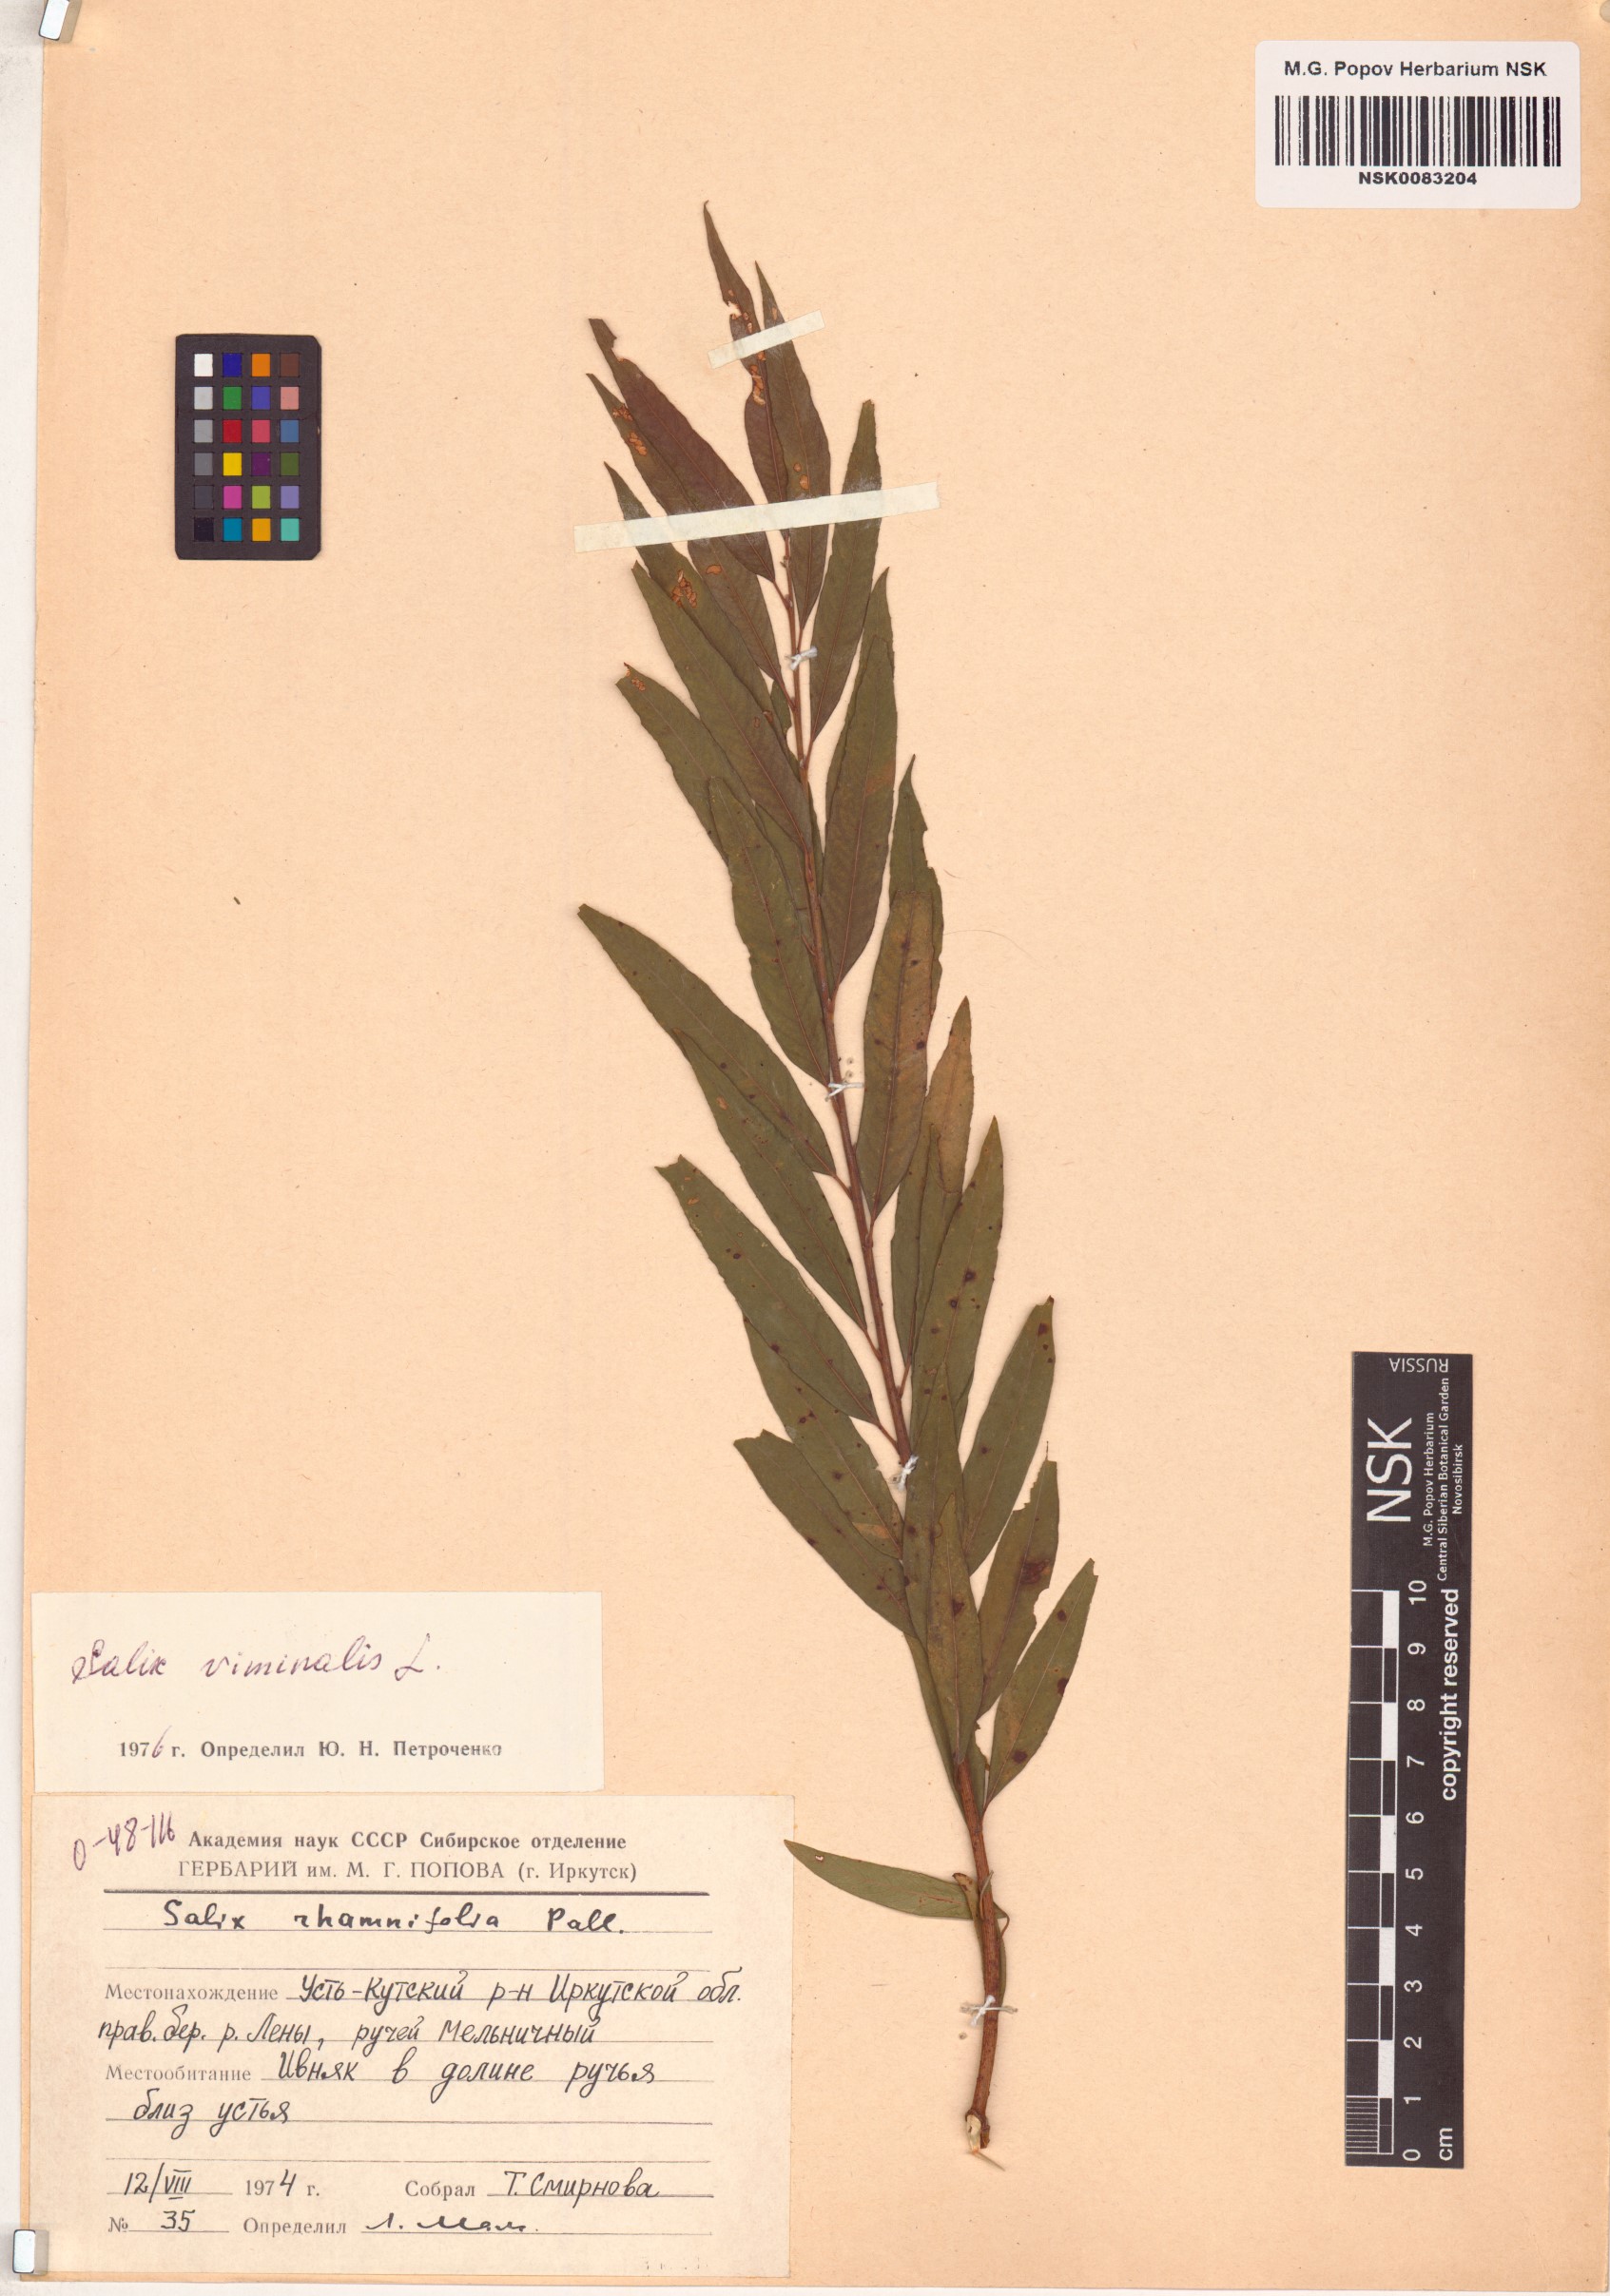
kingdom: Plantae
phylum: Tracheophyta
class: Magnoliopsida
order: Malpighiales
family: Salicaceae
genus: Salix
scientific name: Salix viminalis
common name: Osier
